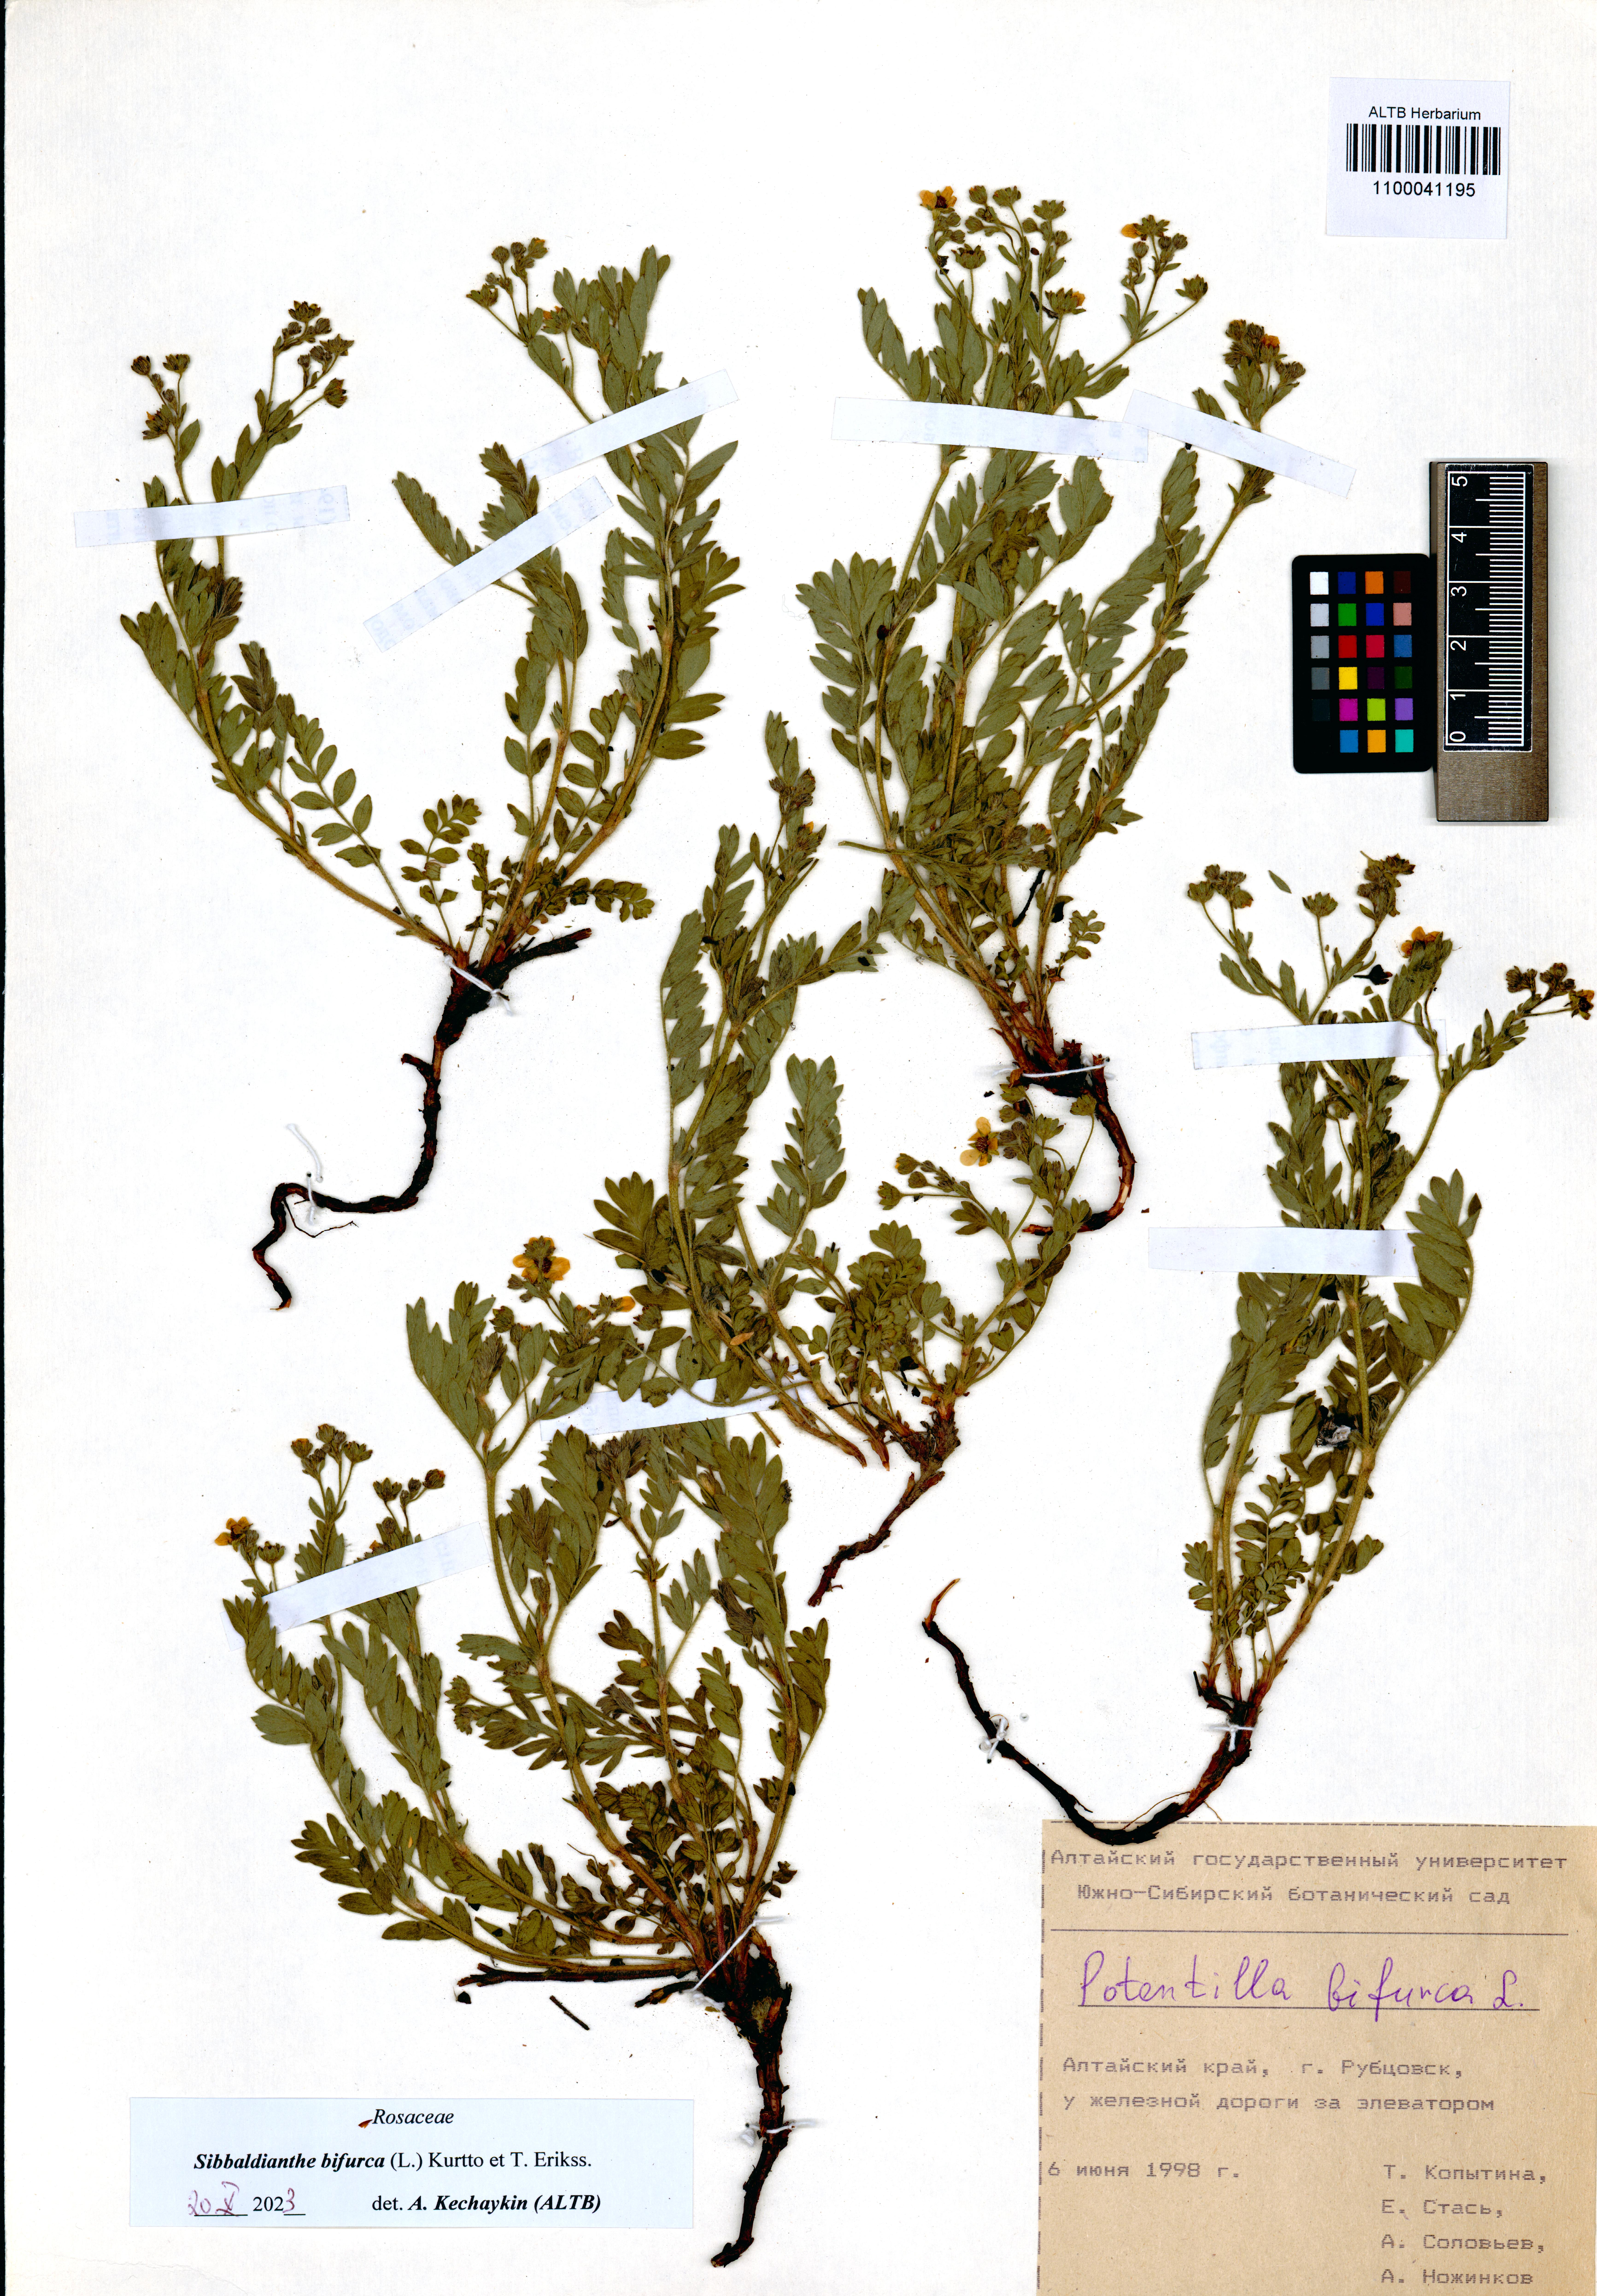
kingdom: Plantae
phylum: Tracheophyta
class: Magnoliopsida
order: Rosales
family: Rosaceae
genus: Sibbaldianthe
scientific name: Sibbaldianthe bifurca
